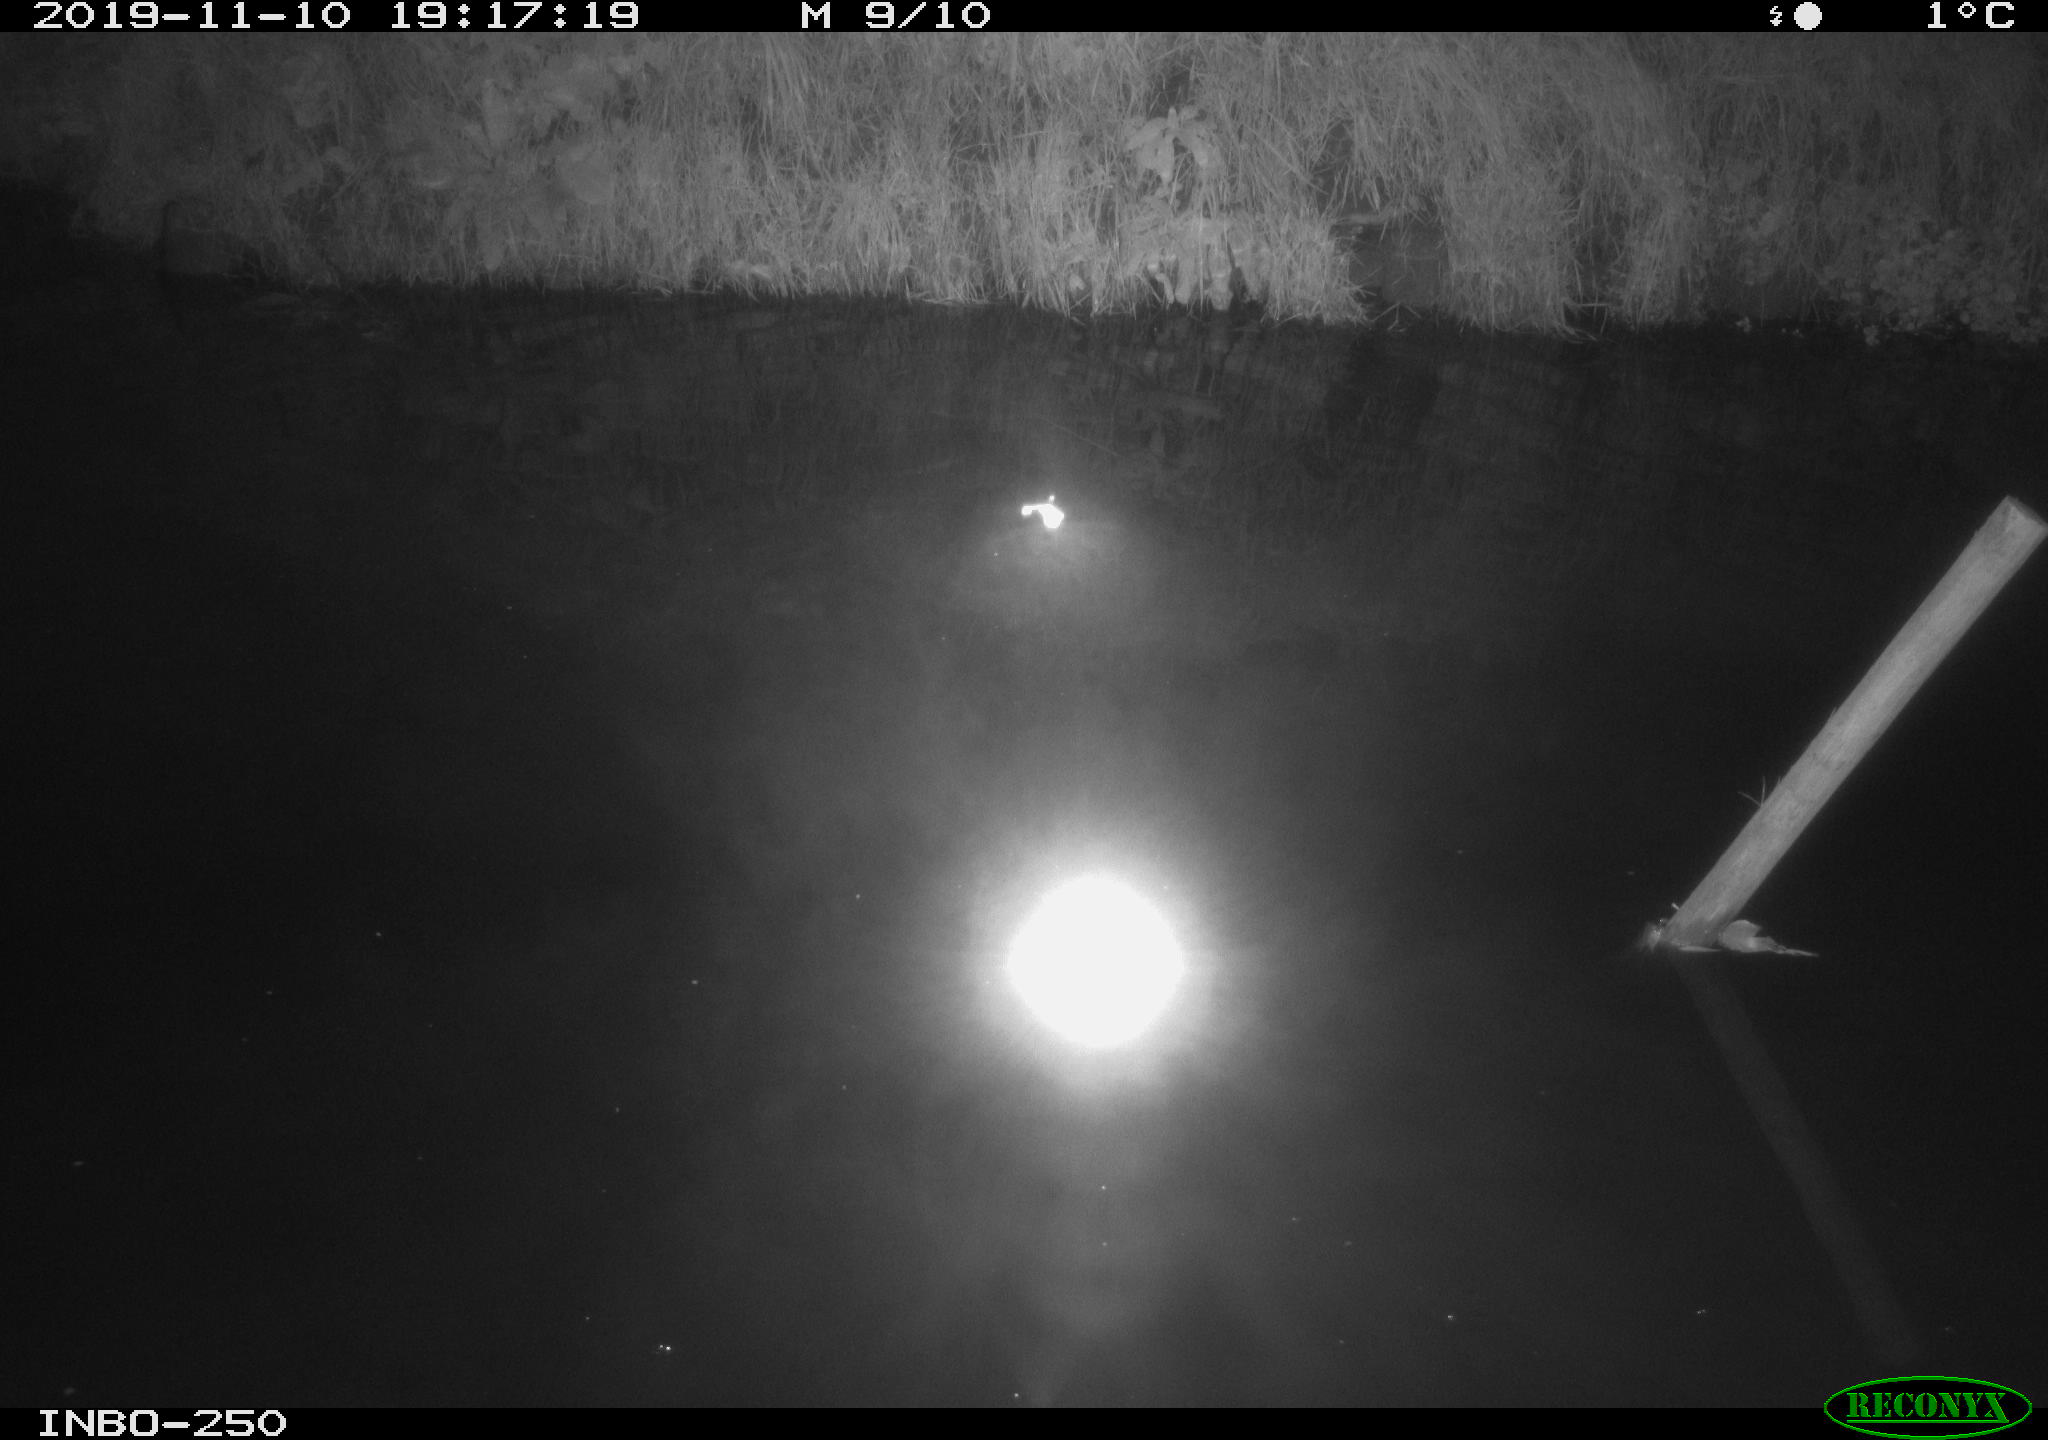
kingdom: Animalia
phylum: Chordata
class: Aves
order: Anseriformes
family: Anatidae
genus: Anas
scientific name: Anas platyrhynchos
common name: Mallard
